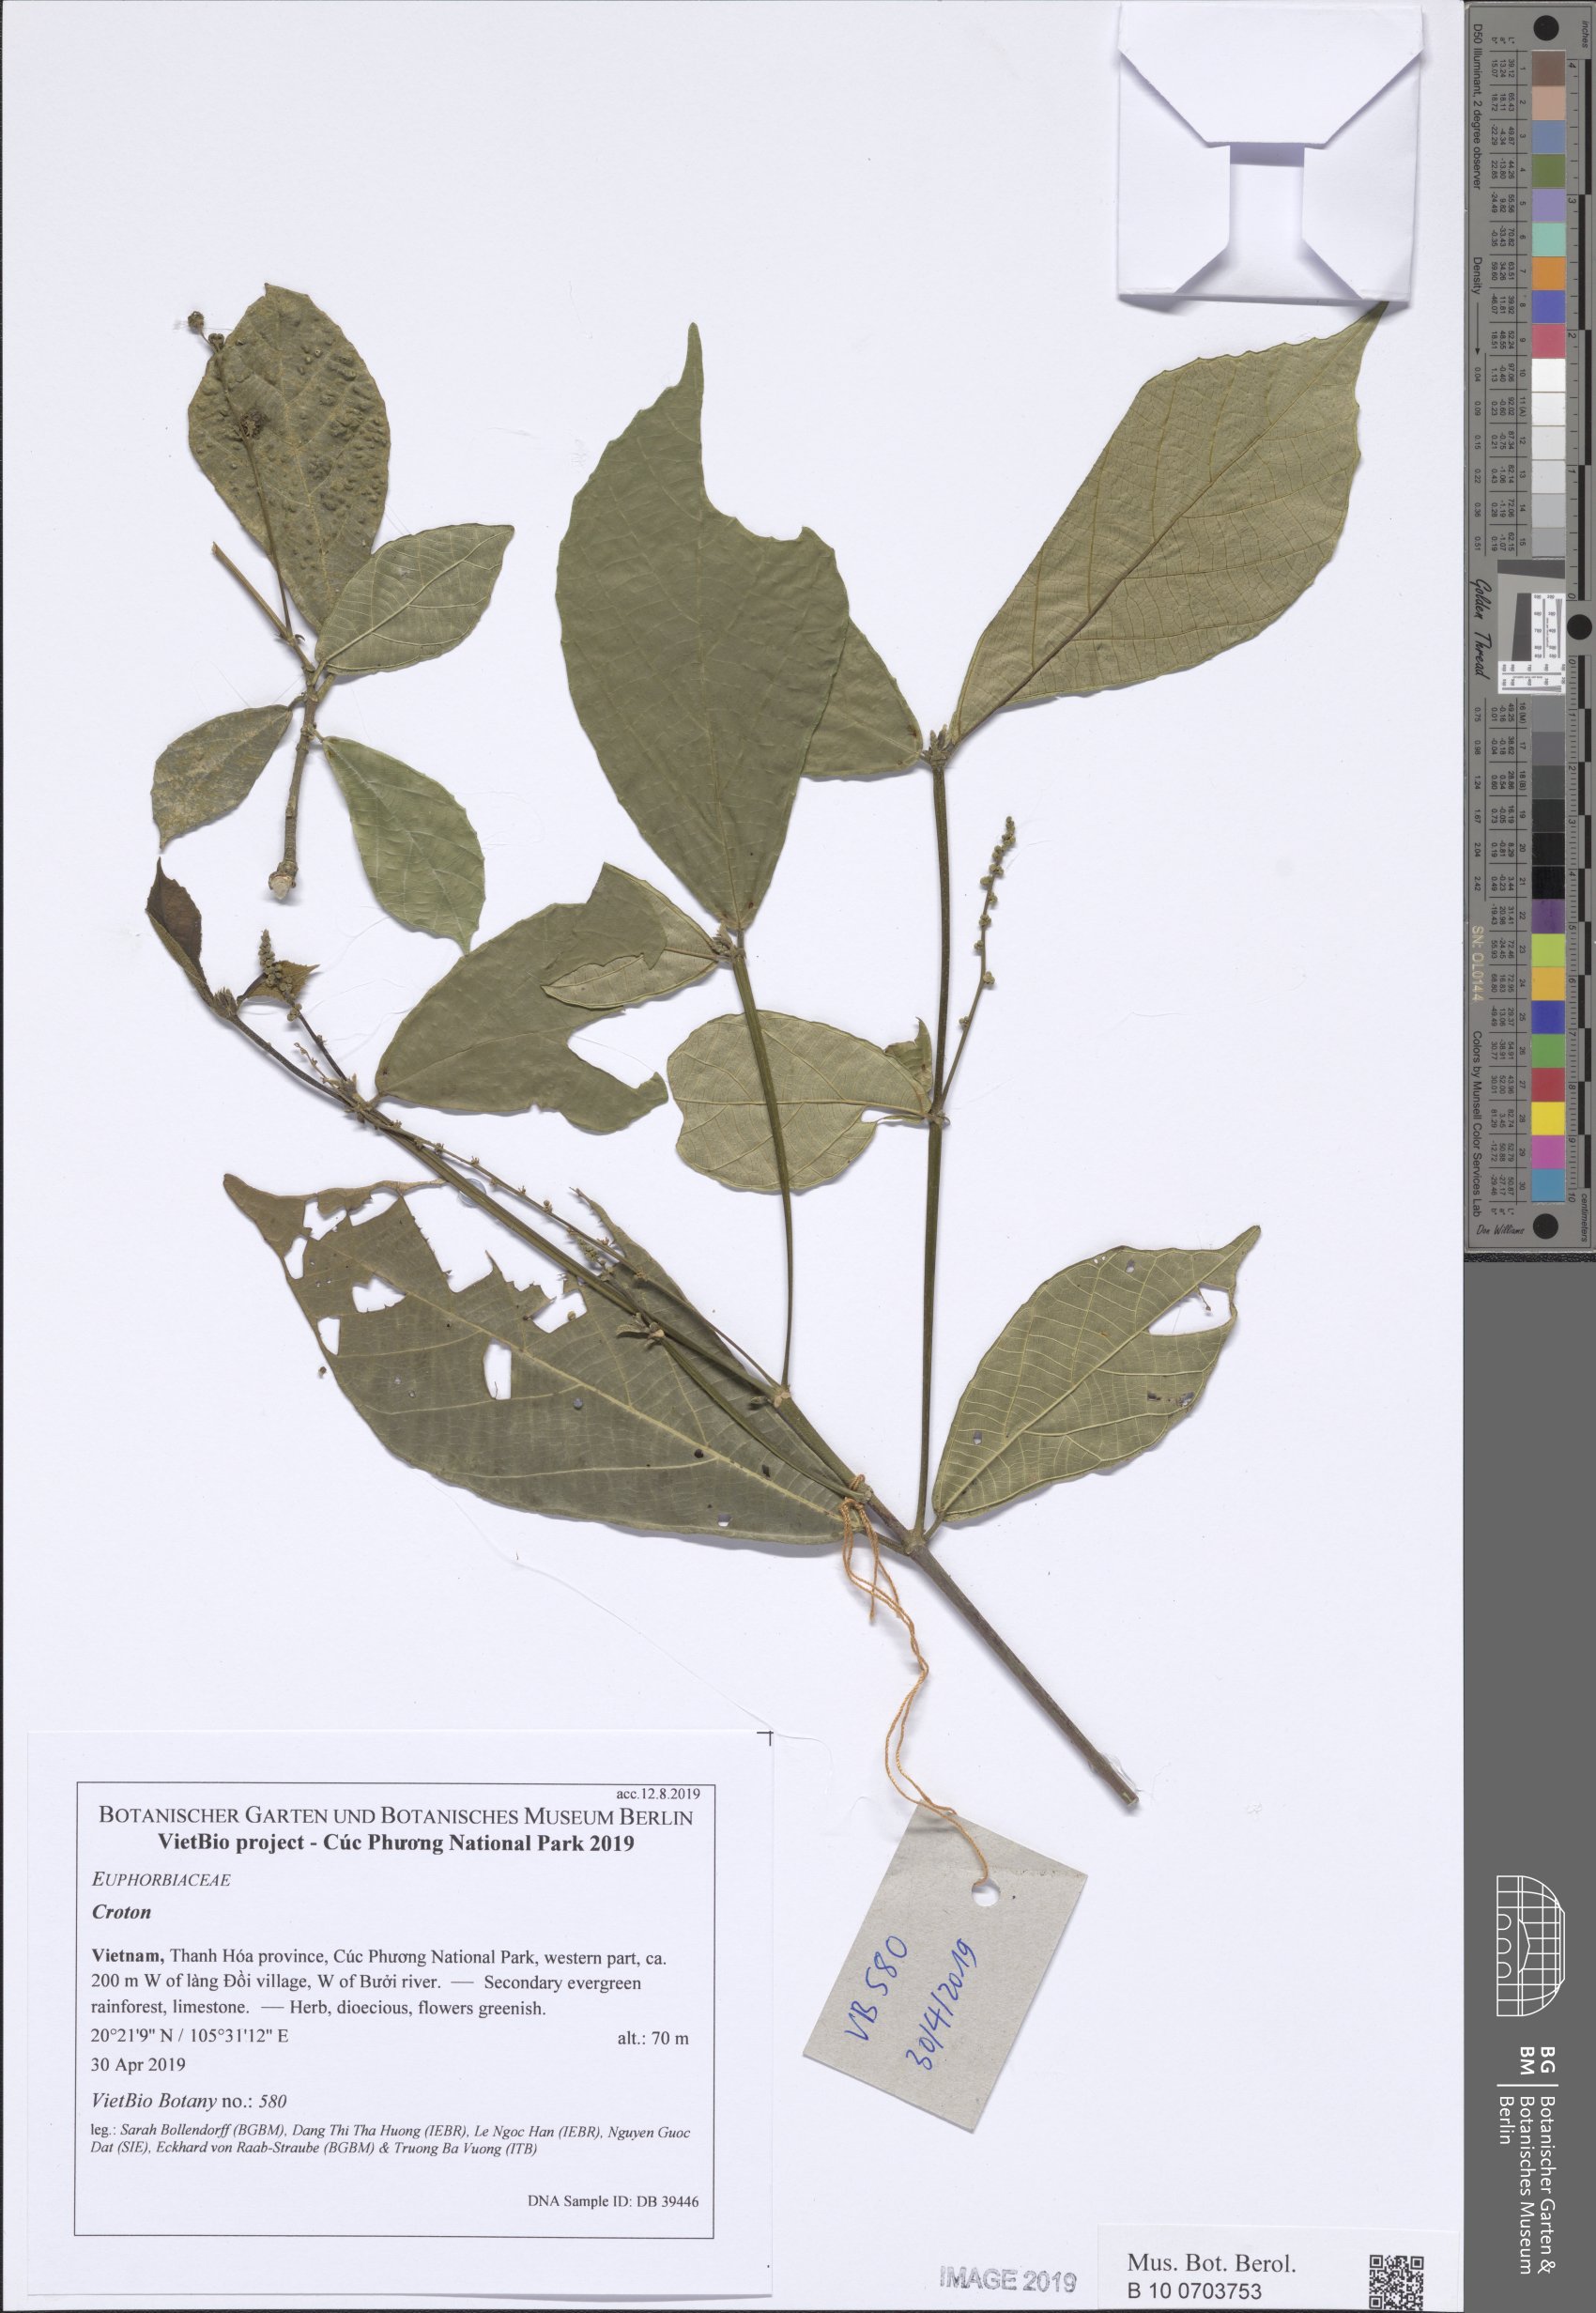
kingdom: Plantae
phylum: Tracheophyta
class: Magnoliopsida
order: Malpighiales
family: Euphorbiaceae
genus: Croton
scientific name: Croton thorelii
